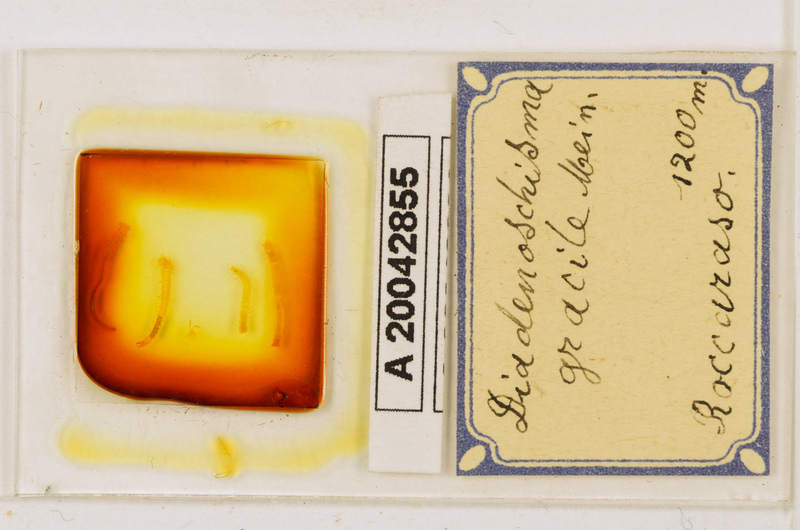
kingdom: Animalia
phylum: Arthropoda
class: Chilopoda
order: Geophilomorpha
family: Himantariidae
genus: Stigmatogaster
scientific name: Stigmatogaster
